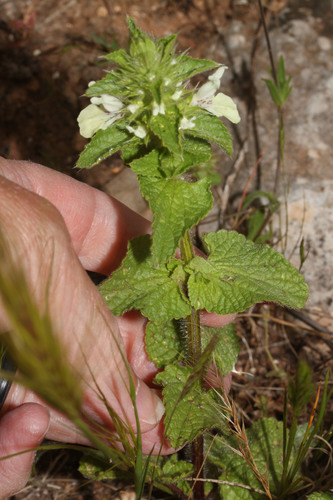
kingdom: Plantae
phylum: Tracheophyta
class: Magnoliopsida
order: Lamiales
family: Lamiaceae
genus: Stachys
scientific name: Stachys ocymastrum
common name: Italian hedgenettle
